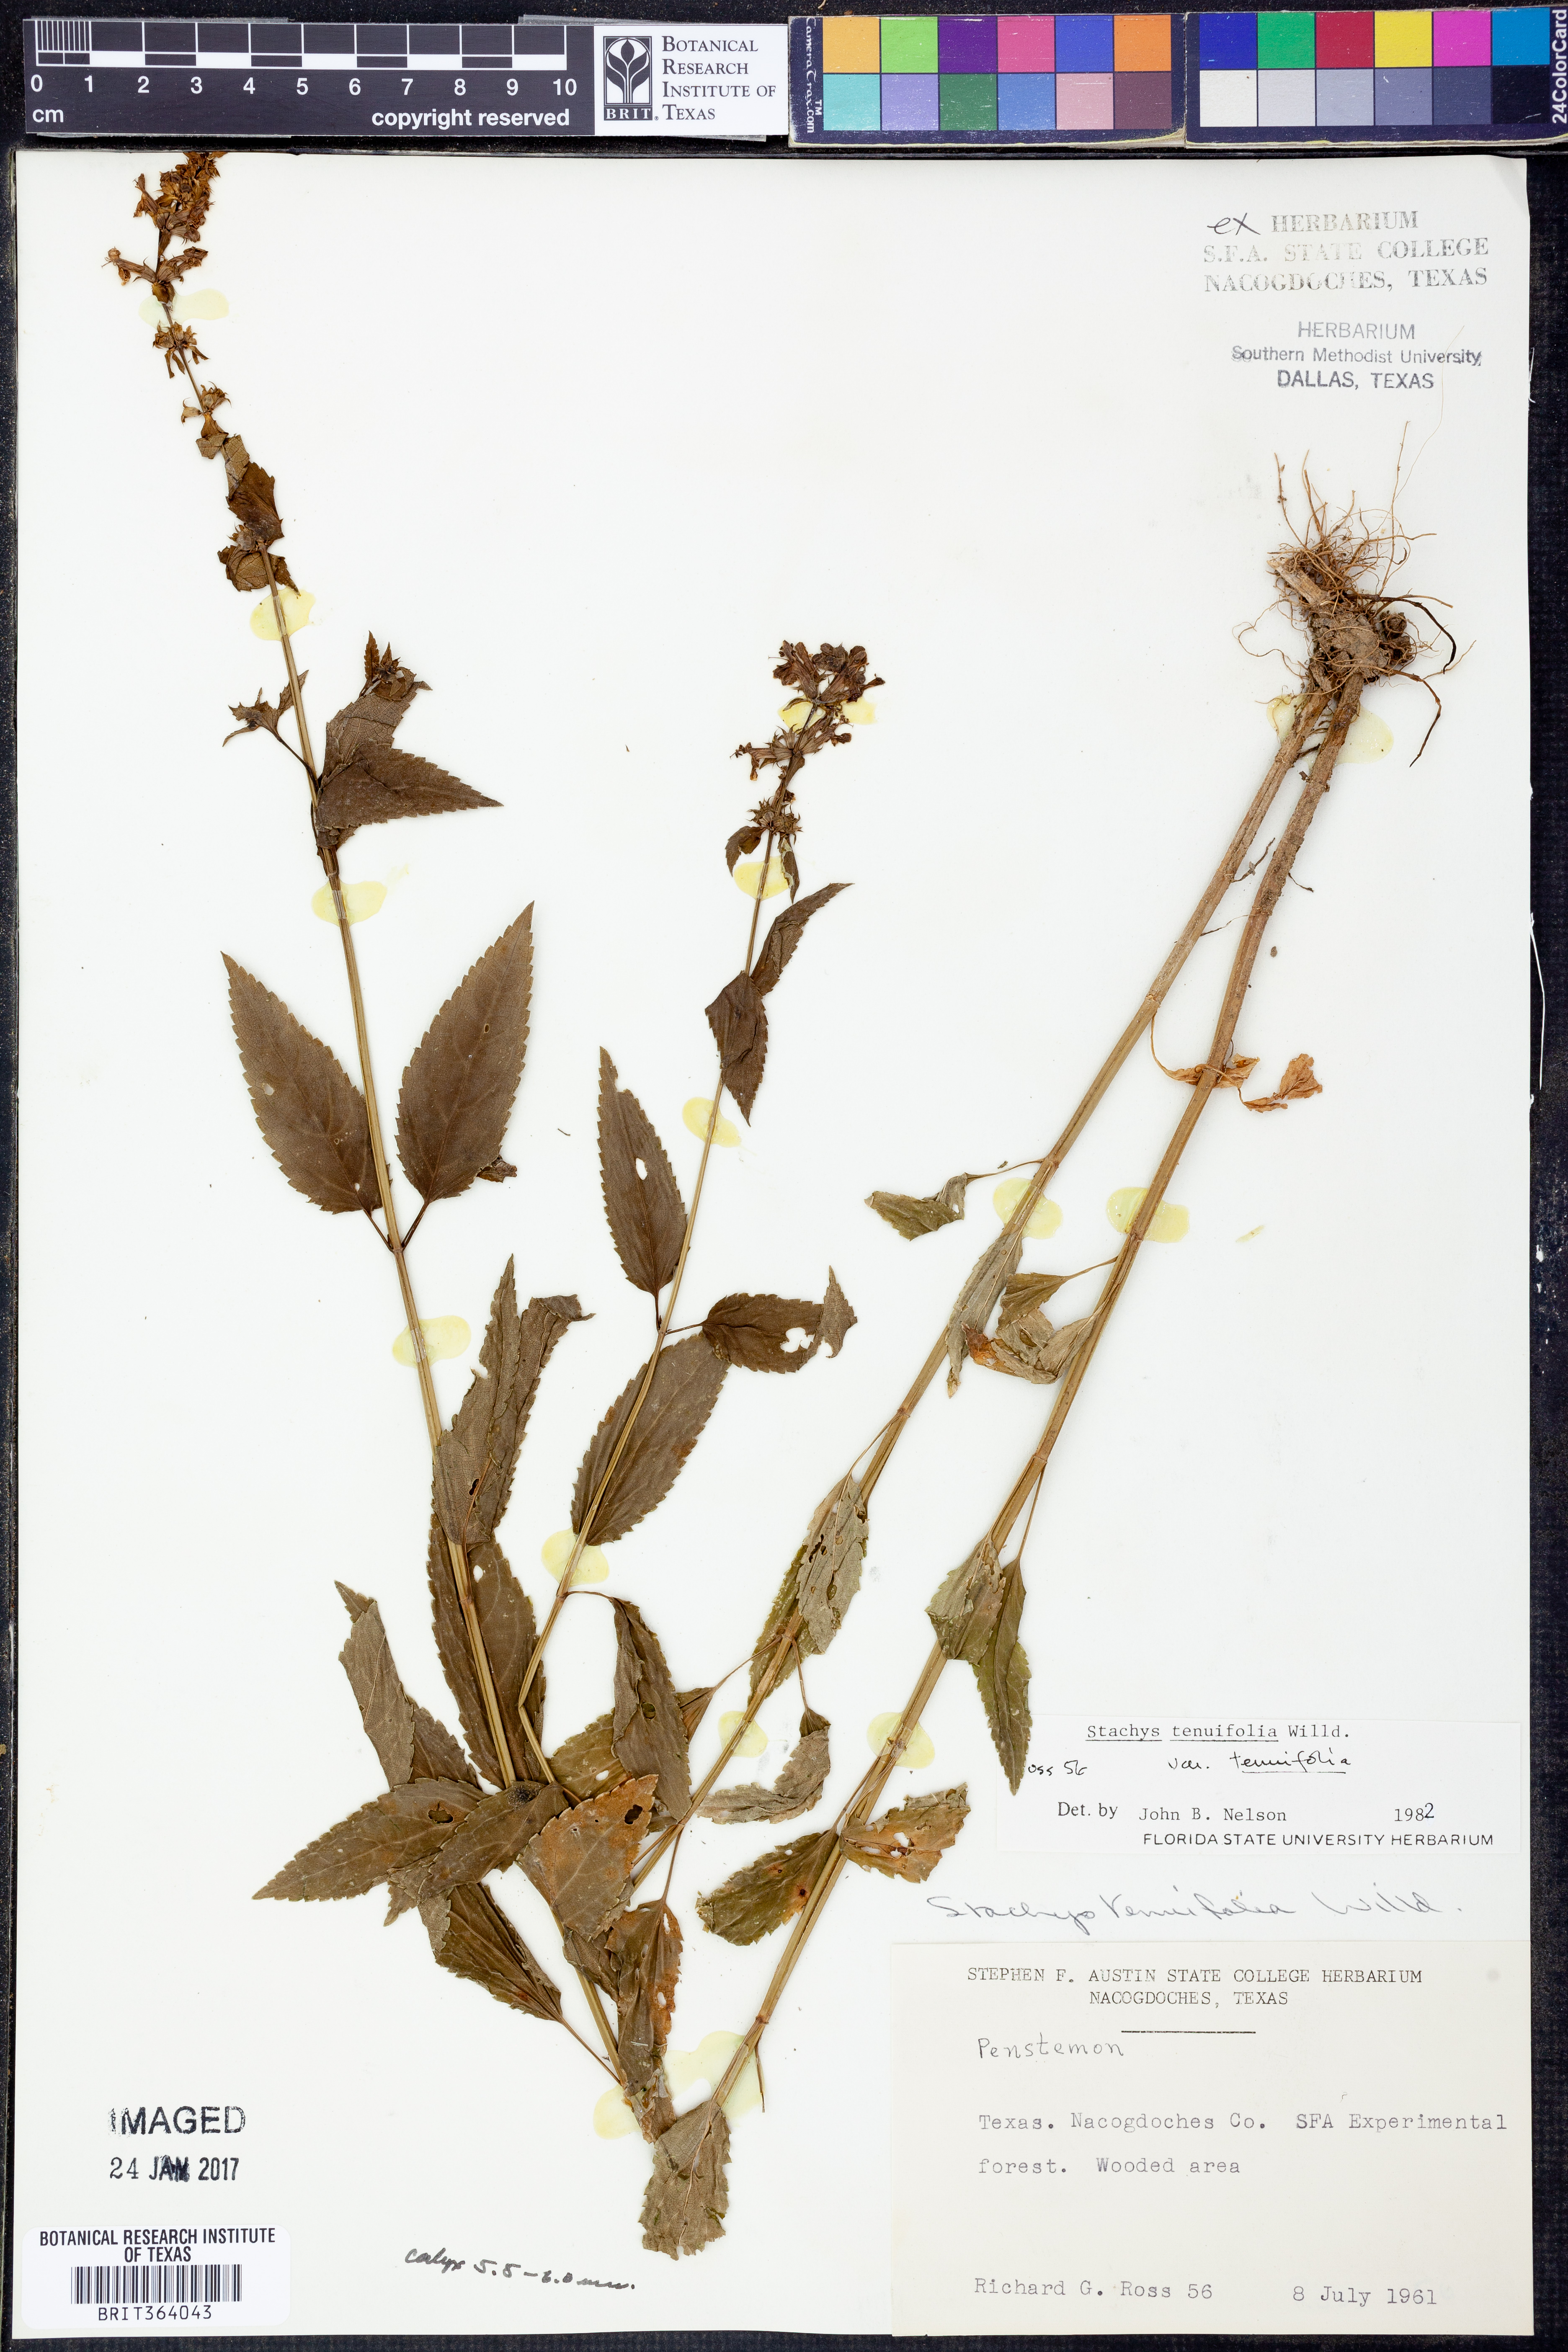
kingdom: Plantae
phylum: Tracheophyta
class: Magnoliopsida
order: Lamiales
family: Lamiaceae
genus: Stachys
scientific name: Stachys tenuifolia
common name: Smooth hedge-nettle
